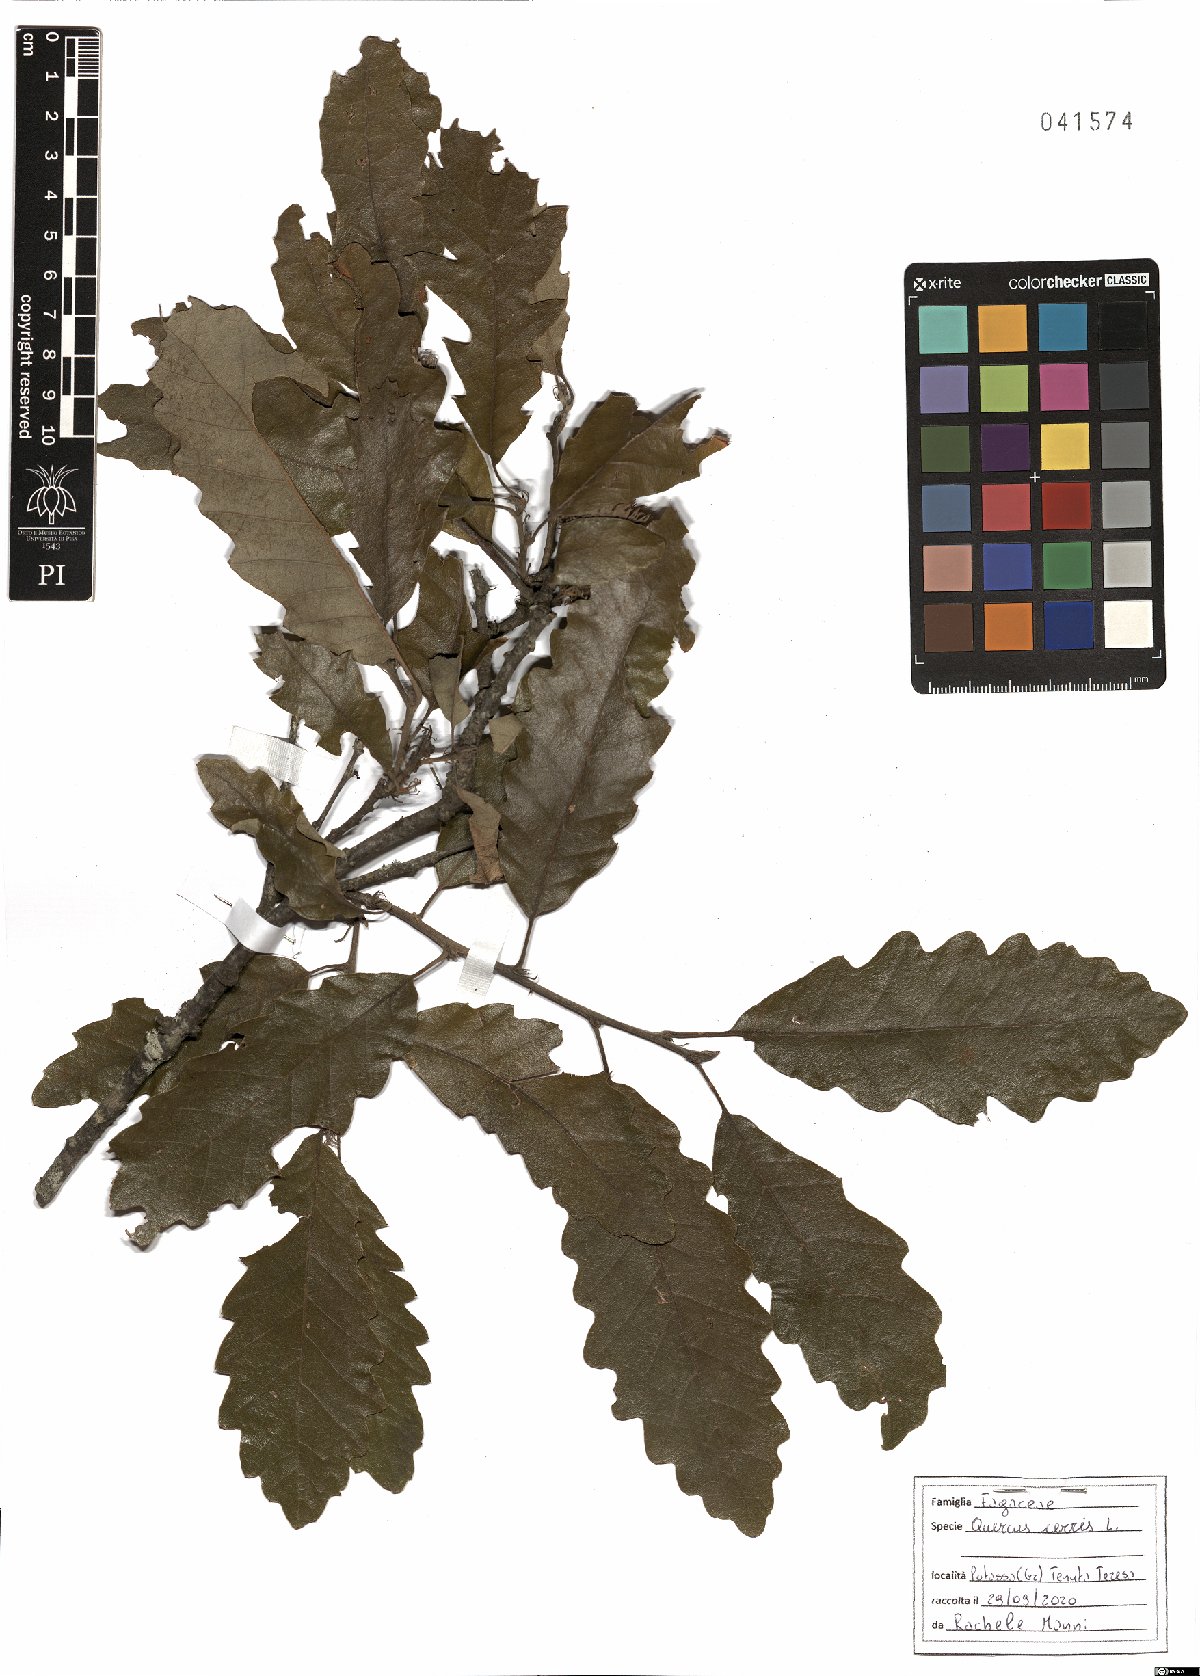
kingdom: Plantae
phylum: Tracheophyta
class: Magnoliopsida
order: Fagales
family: Fagaceae
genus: Quercus
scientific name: Quercus cerris
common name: Turkey oak
